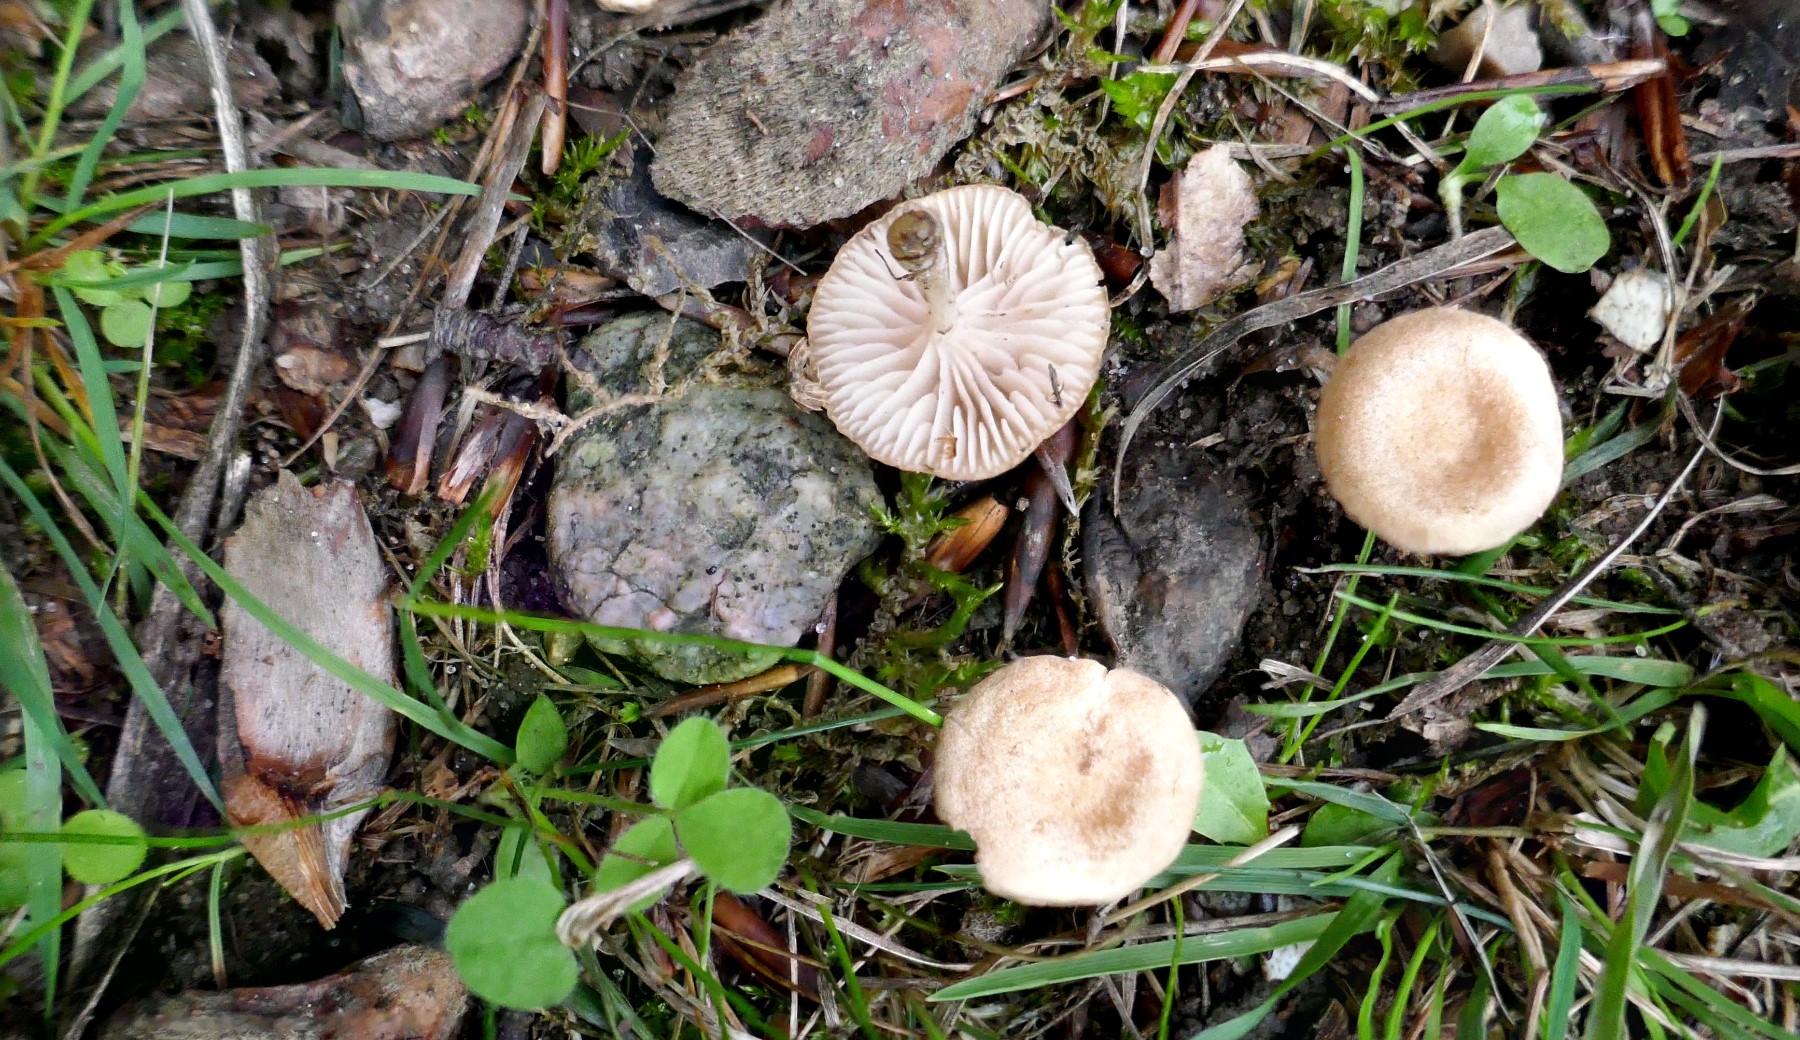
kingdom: Fungi
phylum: Basidiomycota
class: Agaricomycetes
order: Agaricales
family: Entolomataceae
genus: Entoloma
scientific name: Entoloma neglectum
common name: bleg rødblad
